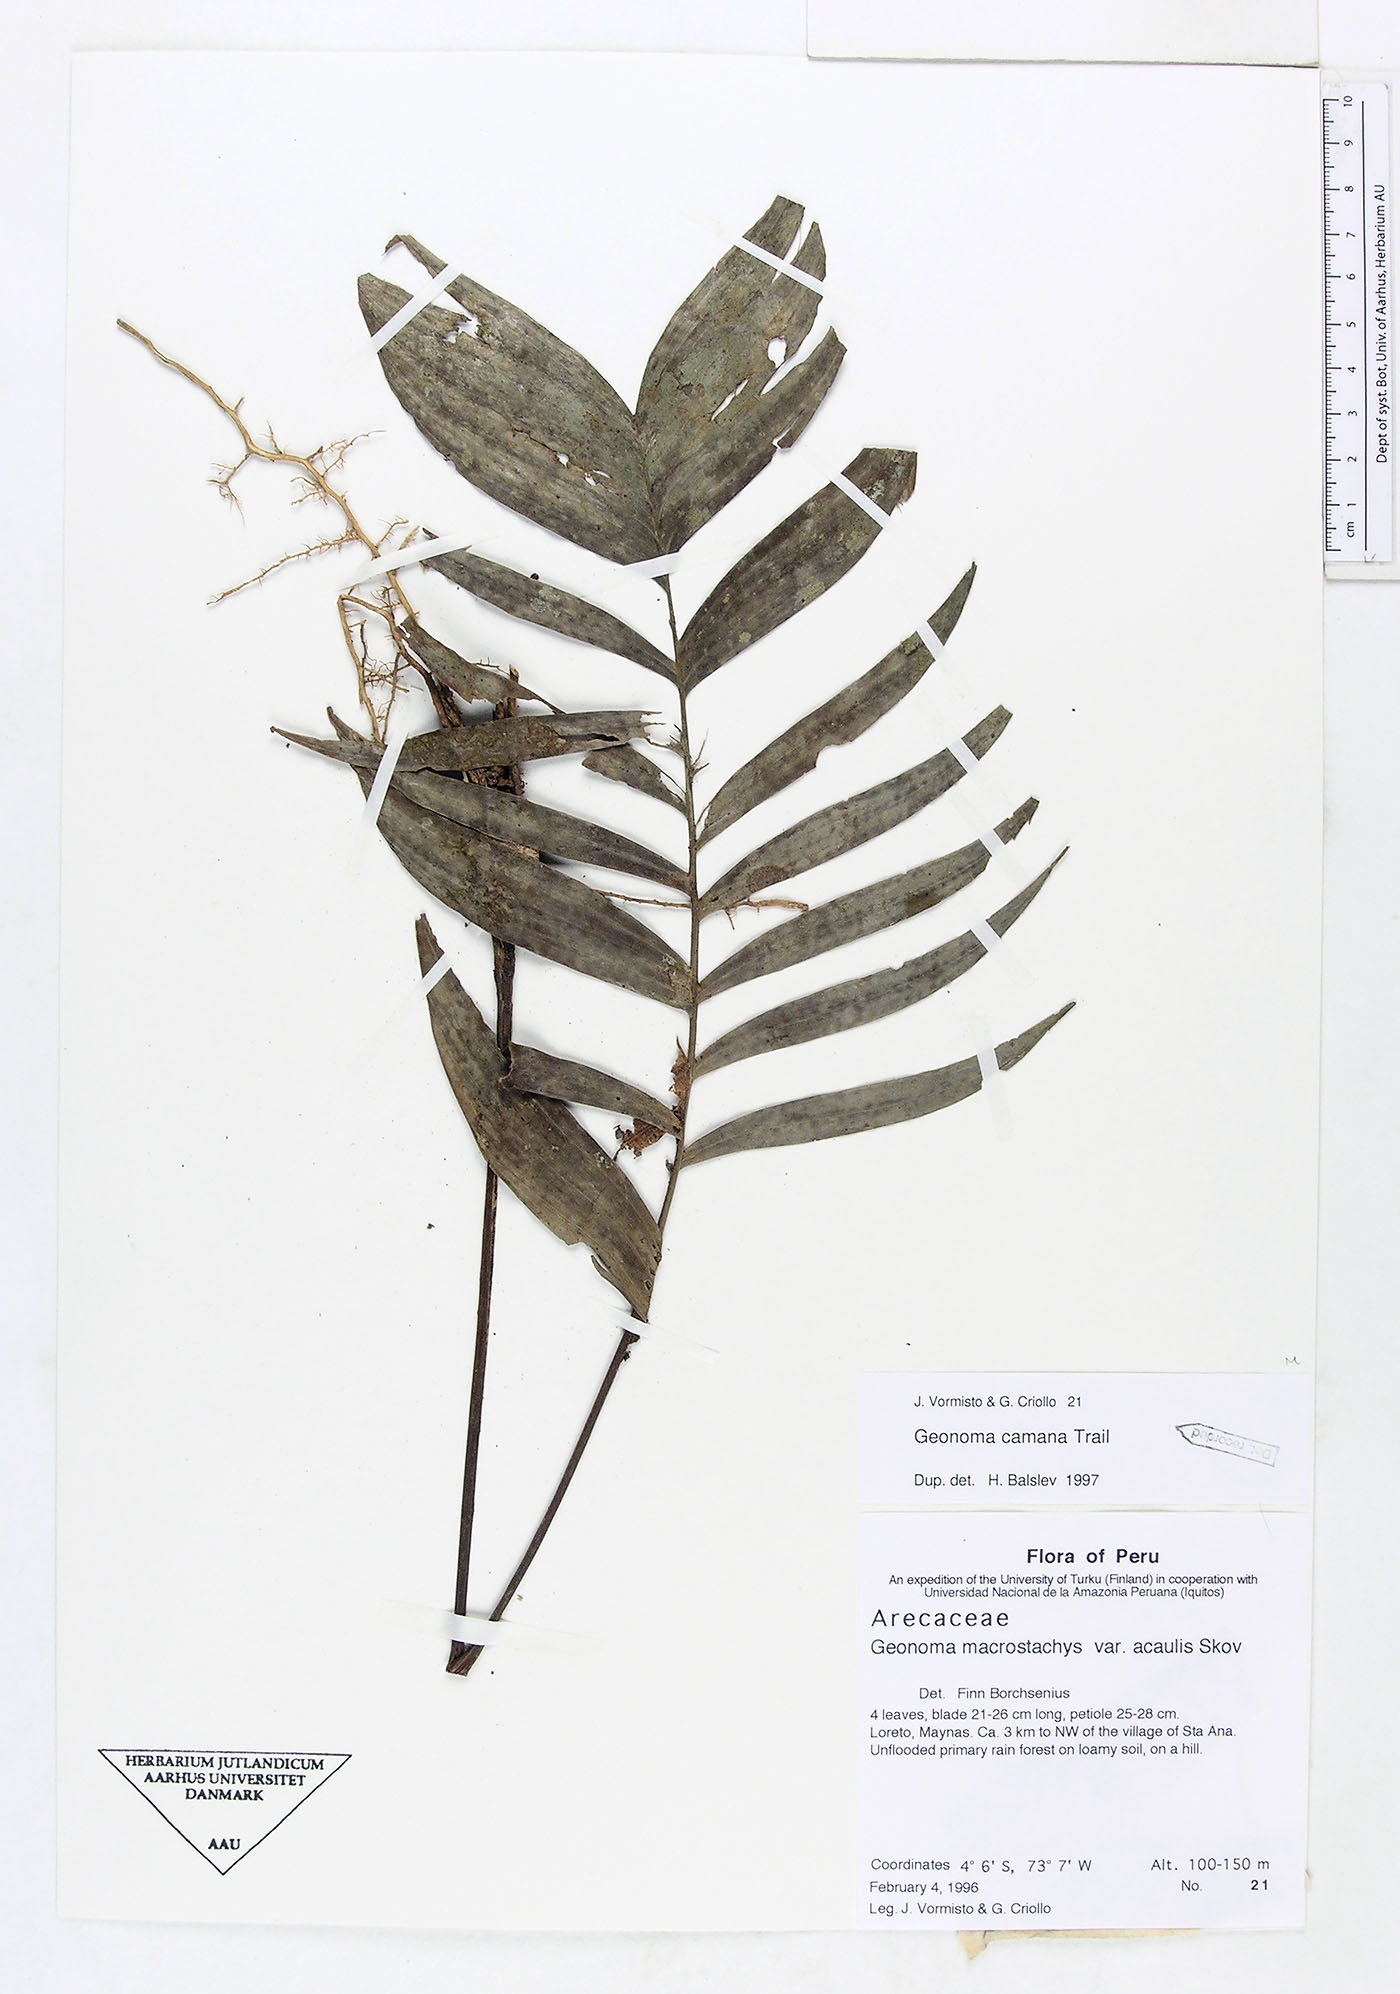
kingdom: Plantae
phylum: Tracheophyta
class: Liliopsida
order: Arecales
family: Arecaceae
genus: Geonoma
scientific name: Geonoma camana
